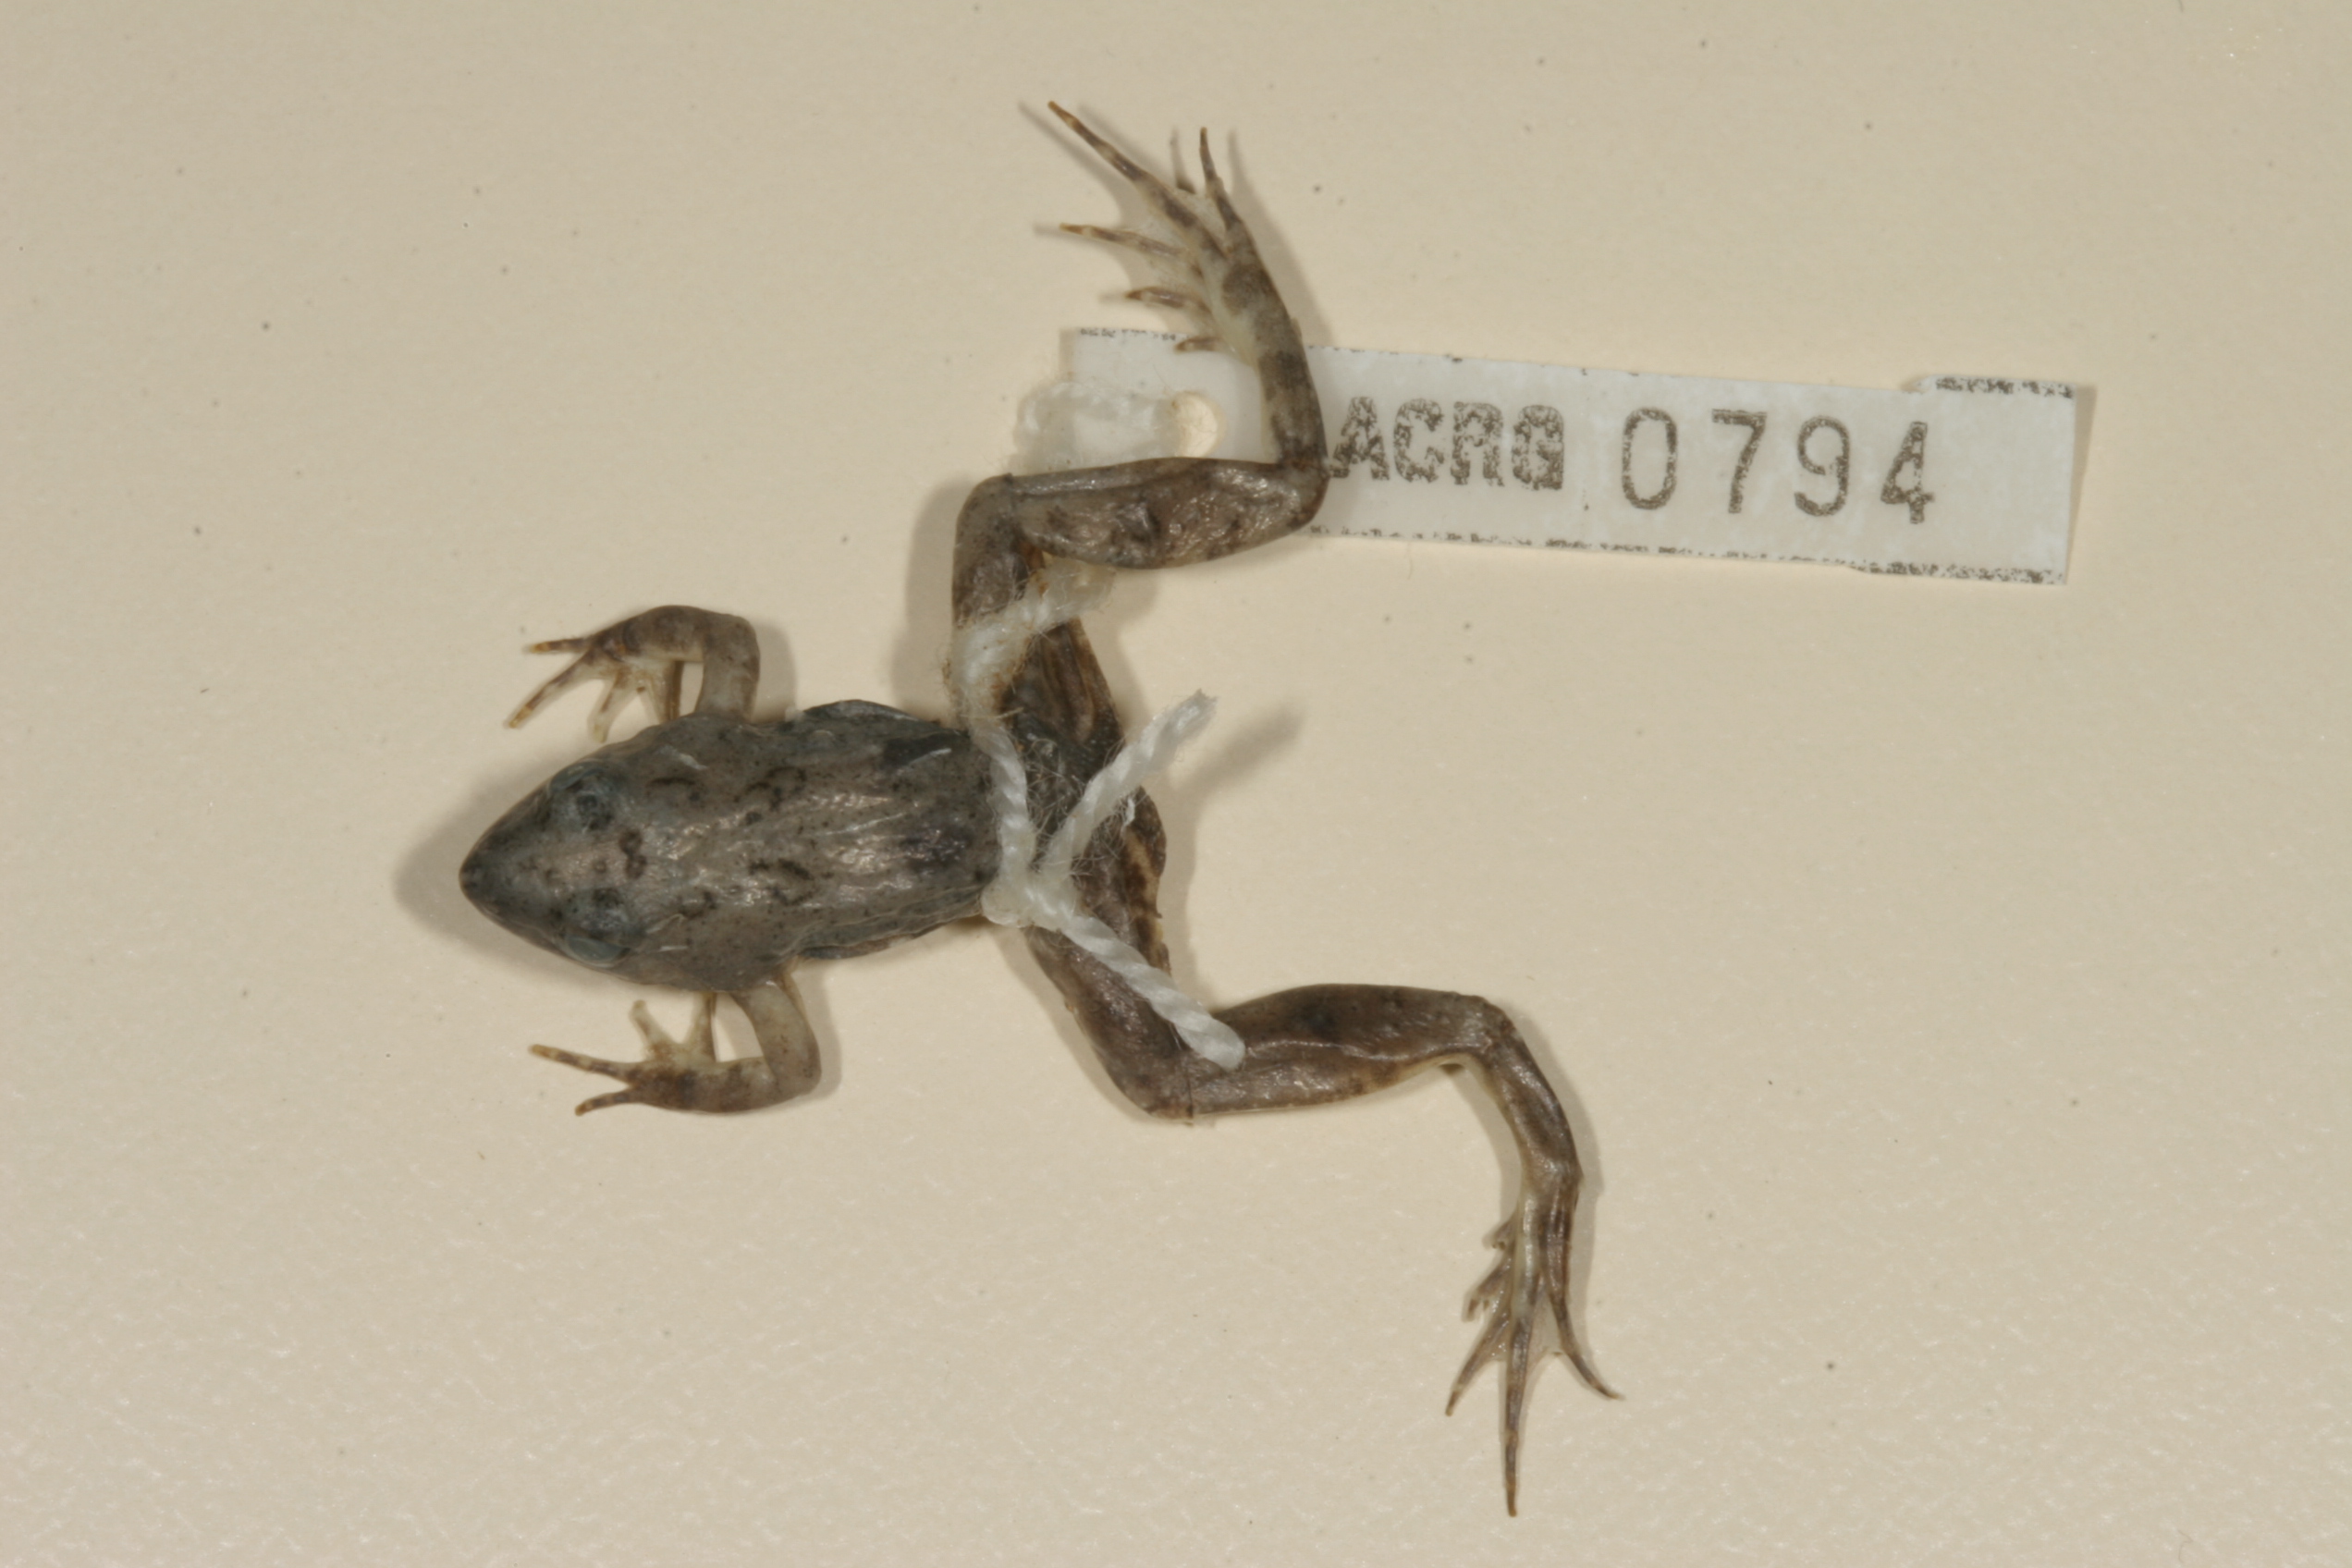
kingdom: Animalia
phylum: Chordata
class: Amphibia
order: Anura
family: Phrynobatrachidae
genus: Phrynobatrachus
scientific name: Phrynobatrachus natalensis
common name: Snoring puddle frog
